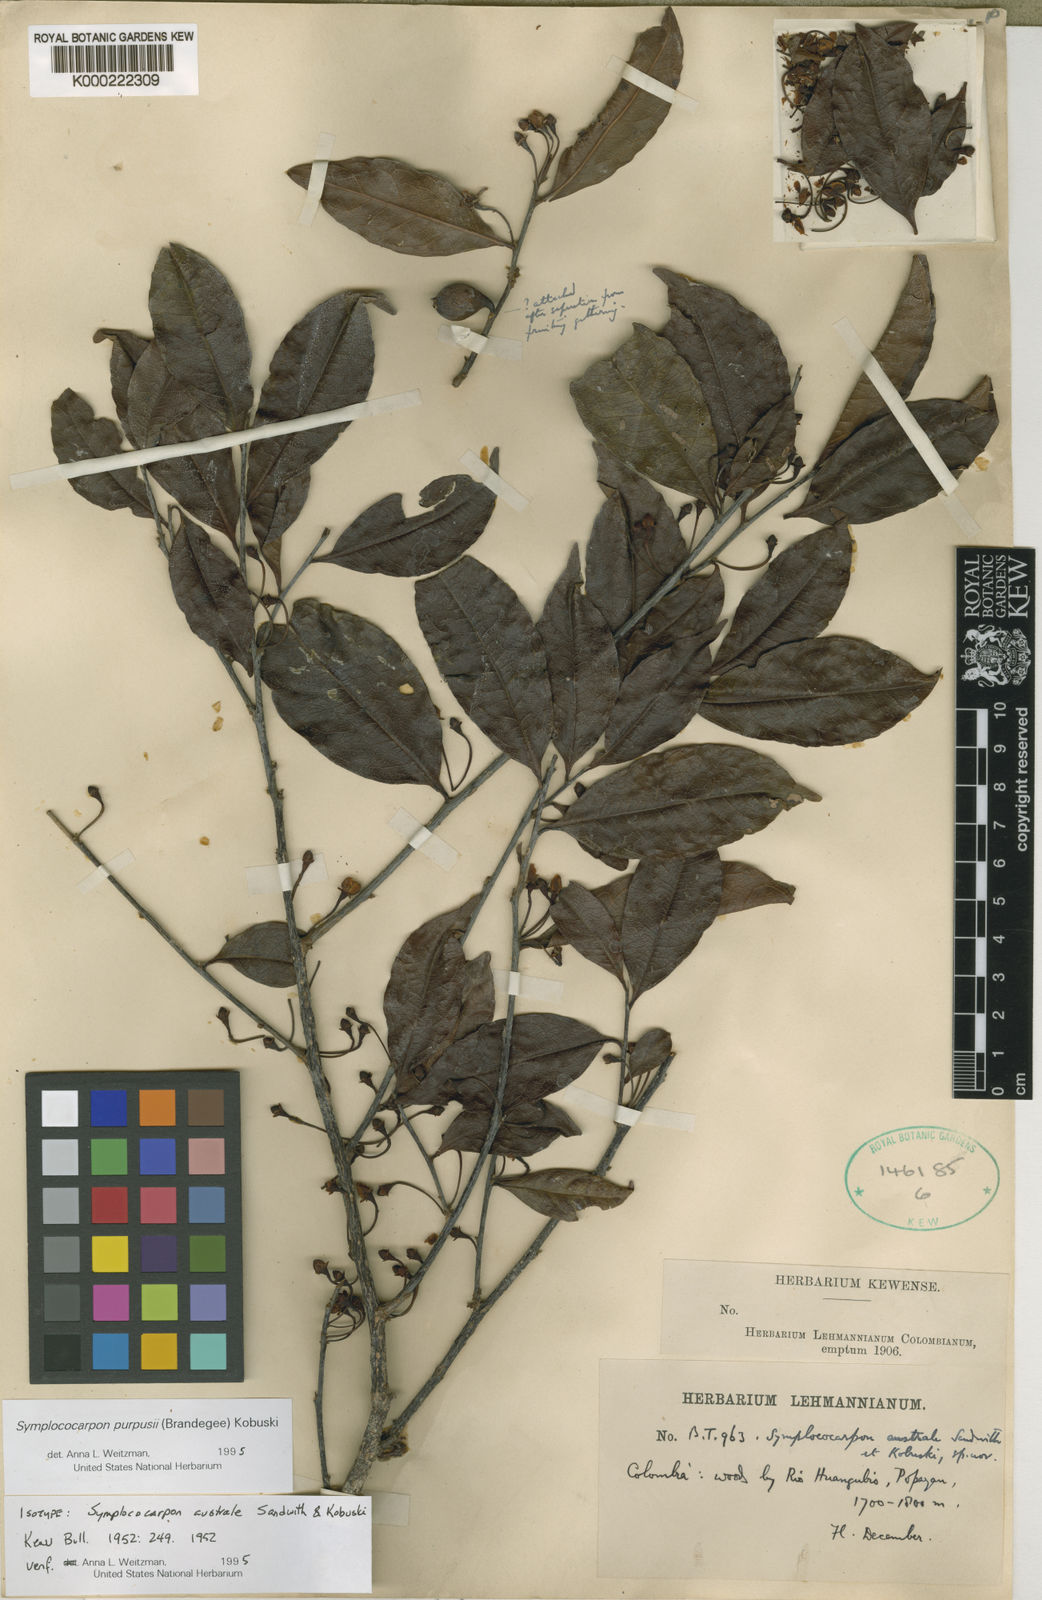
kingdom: Plantae
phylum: Tracheophyta
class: Magnoliopsida
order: Ericales
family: Pentaphylacaceae
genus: Symplococarpon
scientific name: Symplococarpon purpusii
